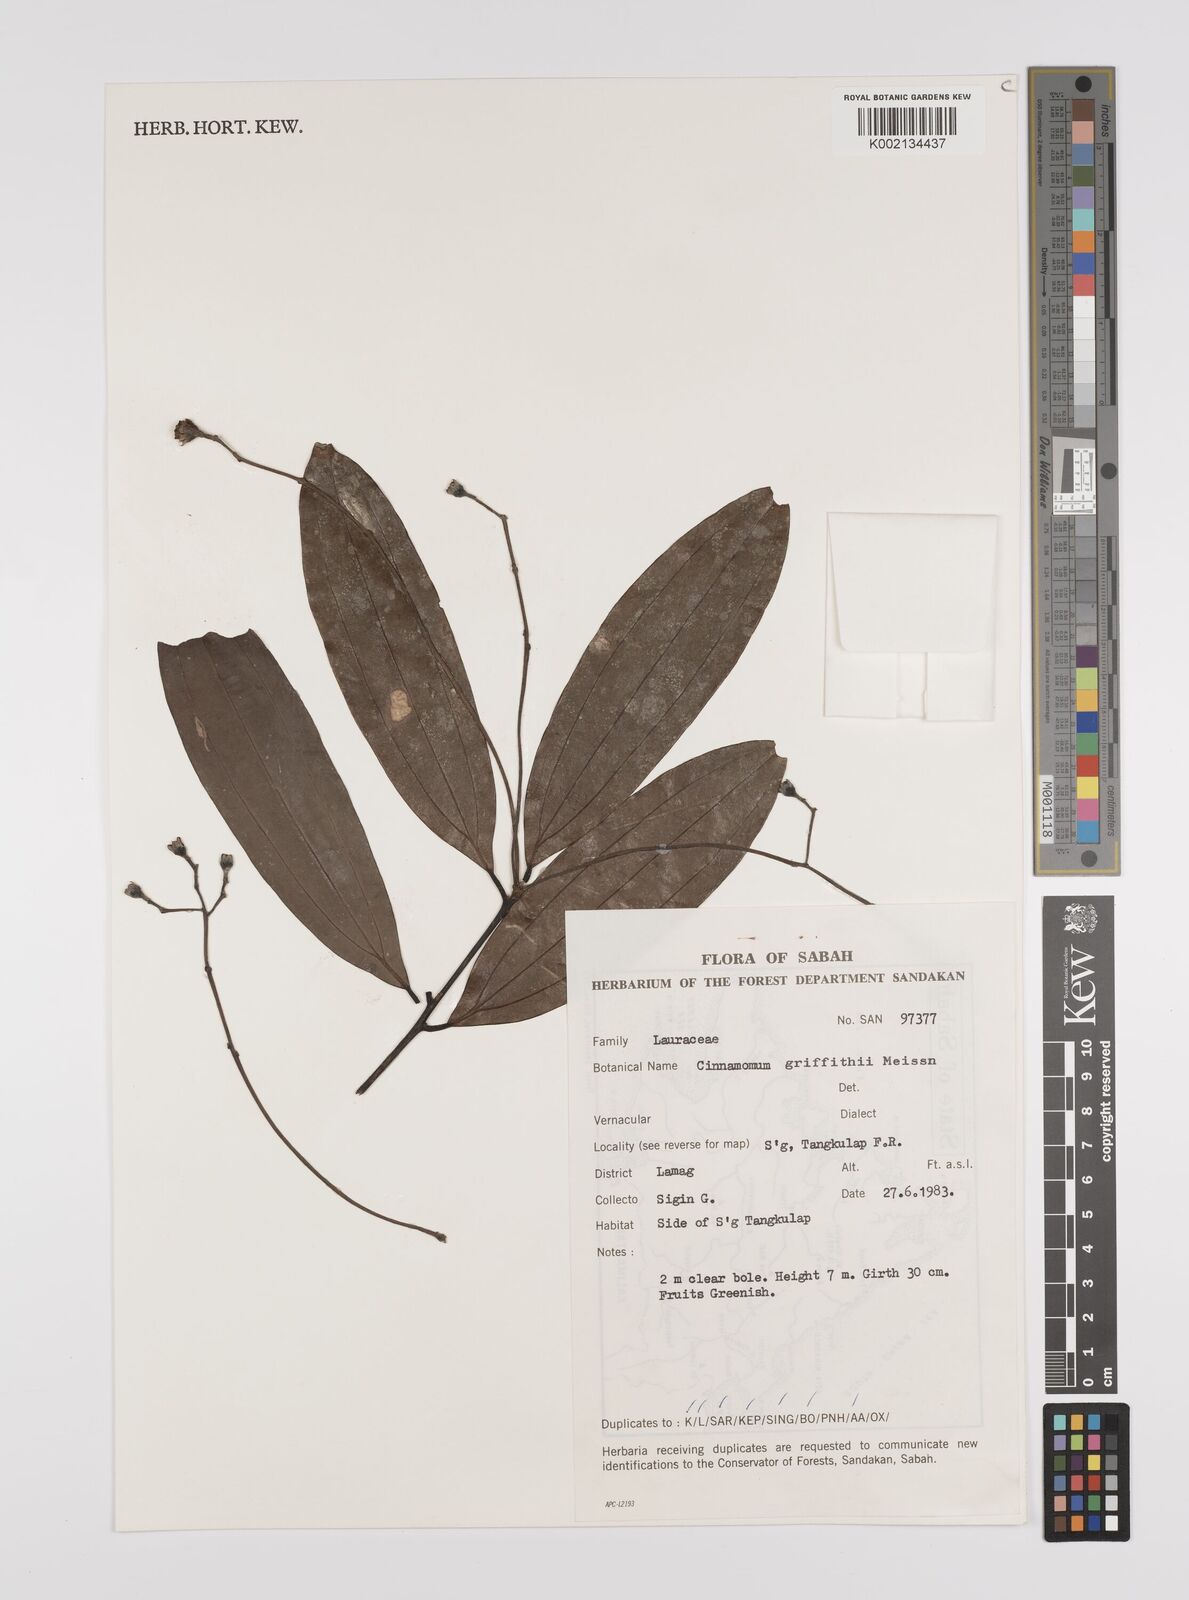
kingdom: Plantae
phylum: Tracheophyta
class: Magnoliopsida
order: Laurales
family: Lauraceae
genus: Cinnamomum
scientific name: Cinnamomum iners
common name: Wild cinnamon
